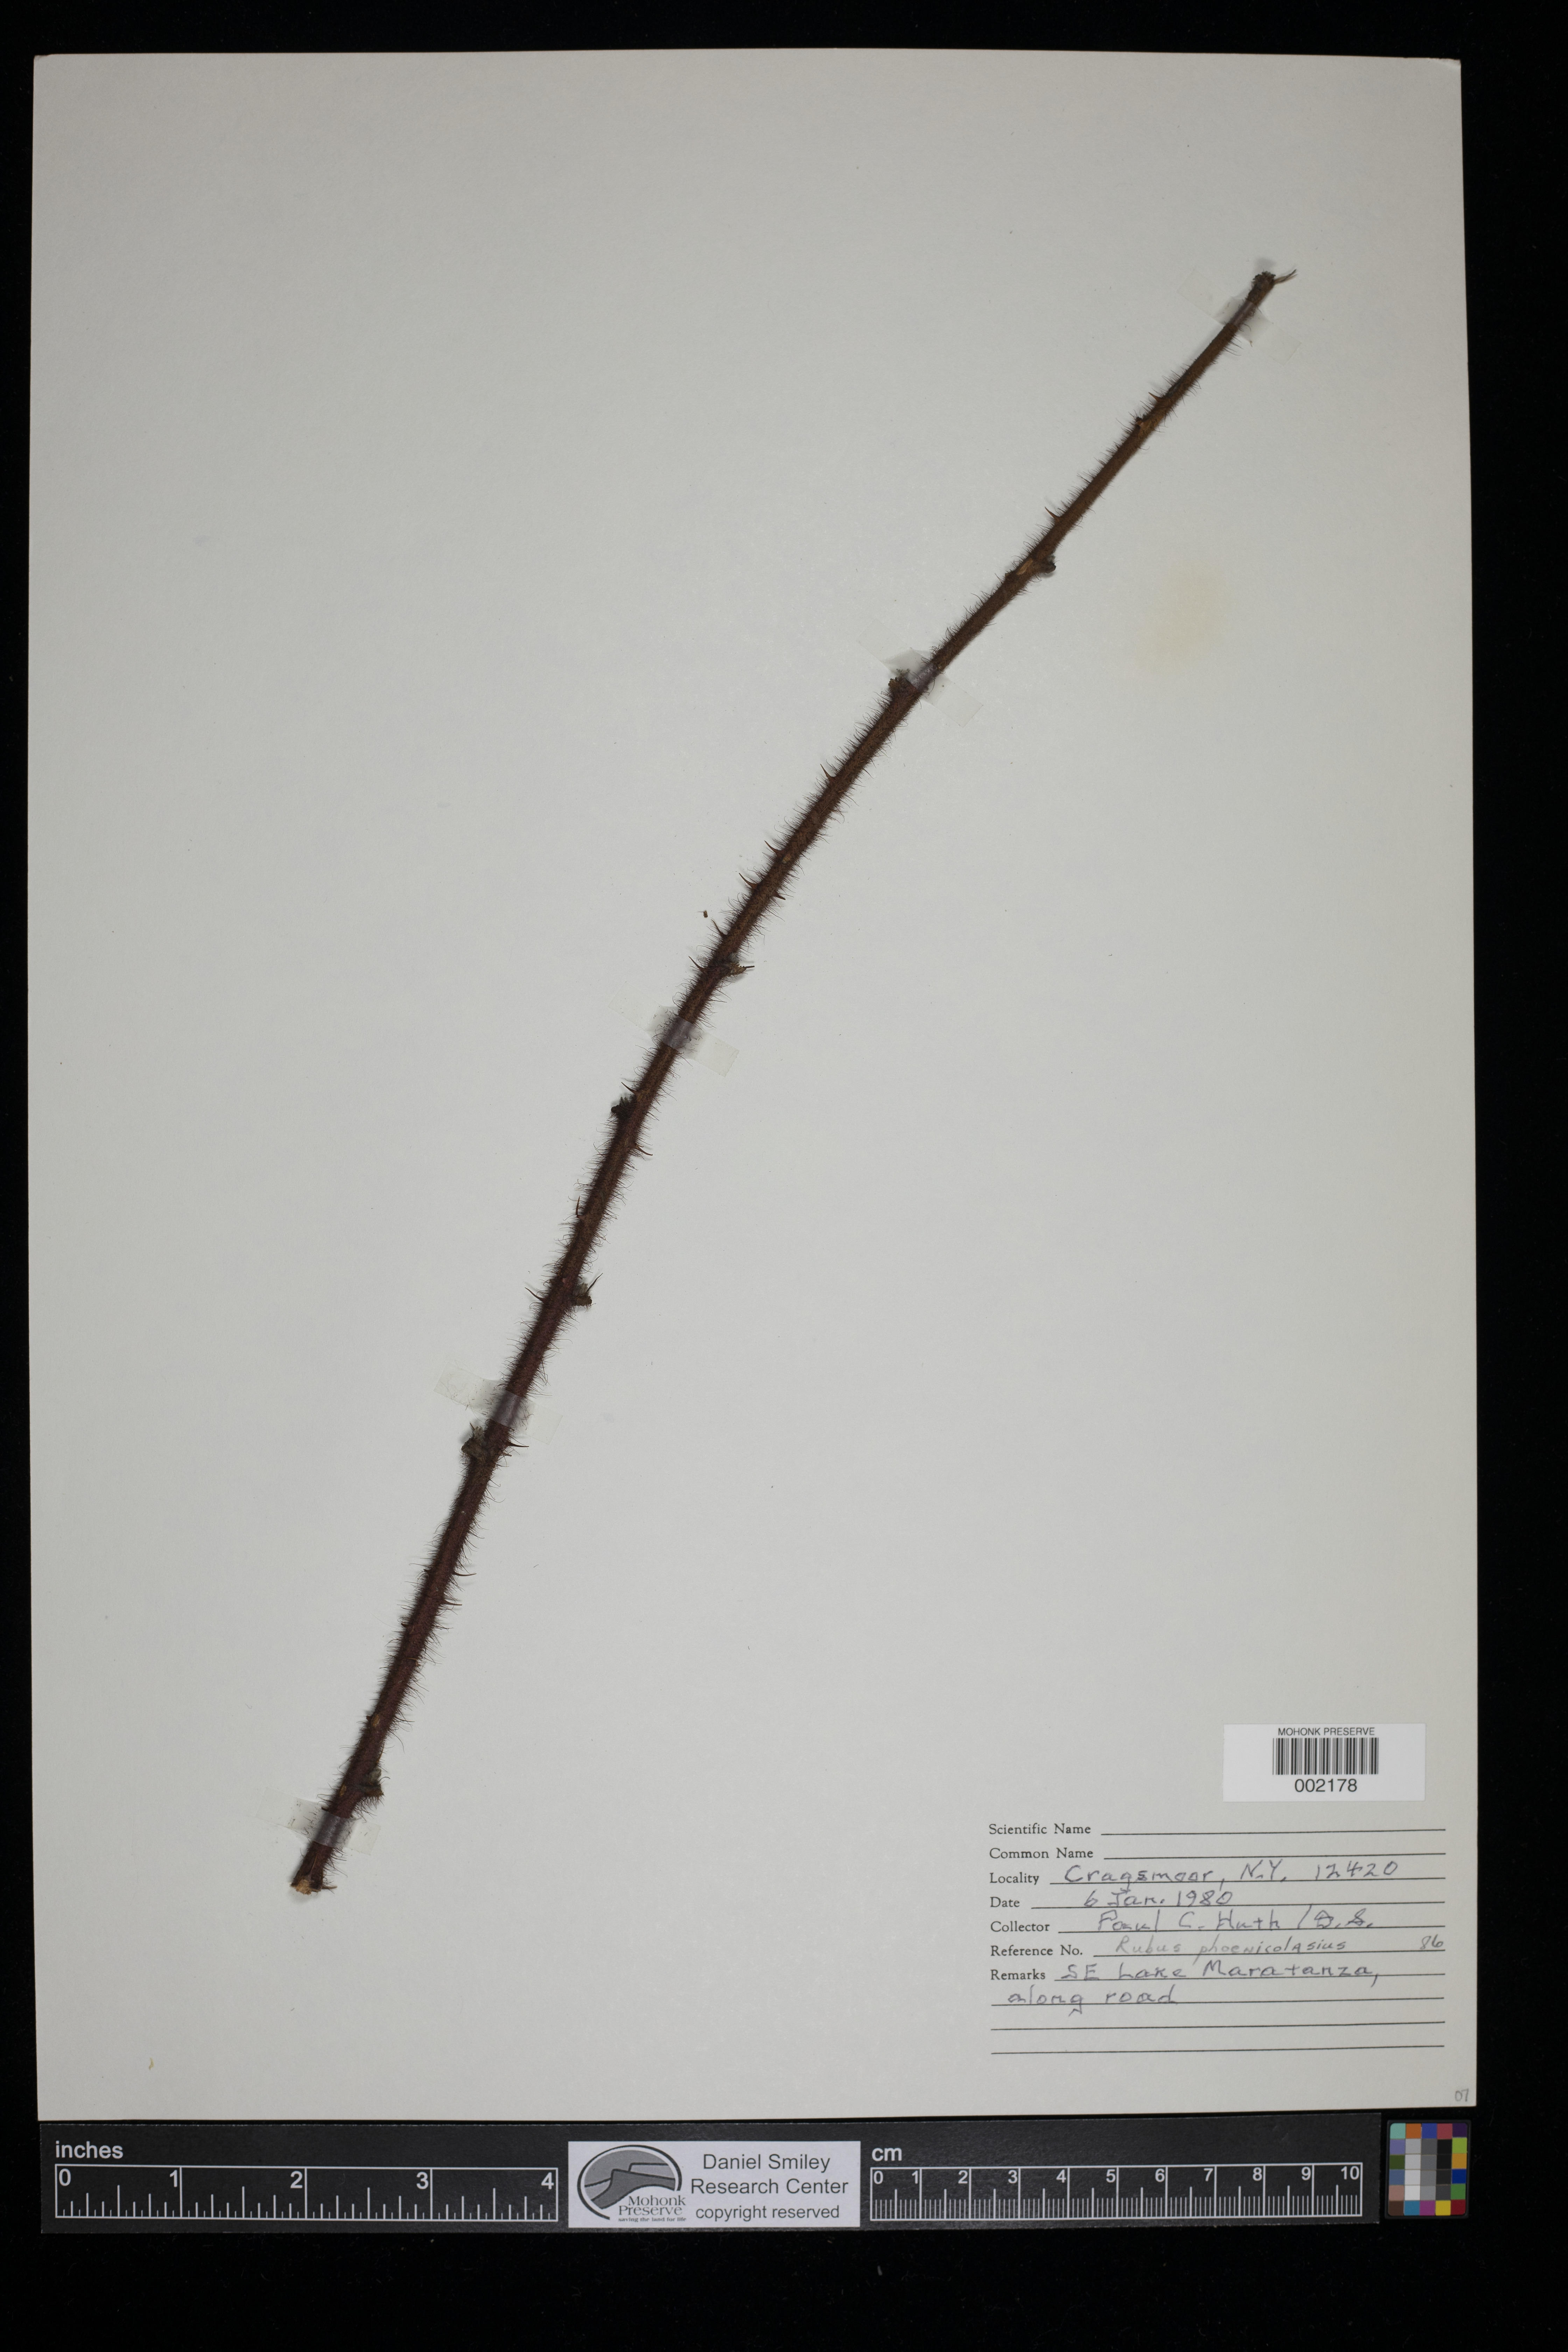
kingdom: Plantae
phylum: Tracheophyta
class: Magnoliopsida
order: Rosales
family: Rosaceae
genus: Rubus
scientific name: Rubus phoenicolasius
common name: Japanese wineberry
